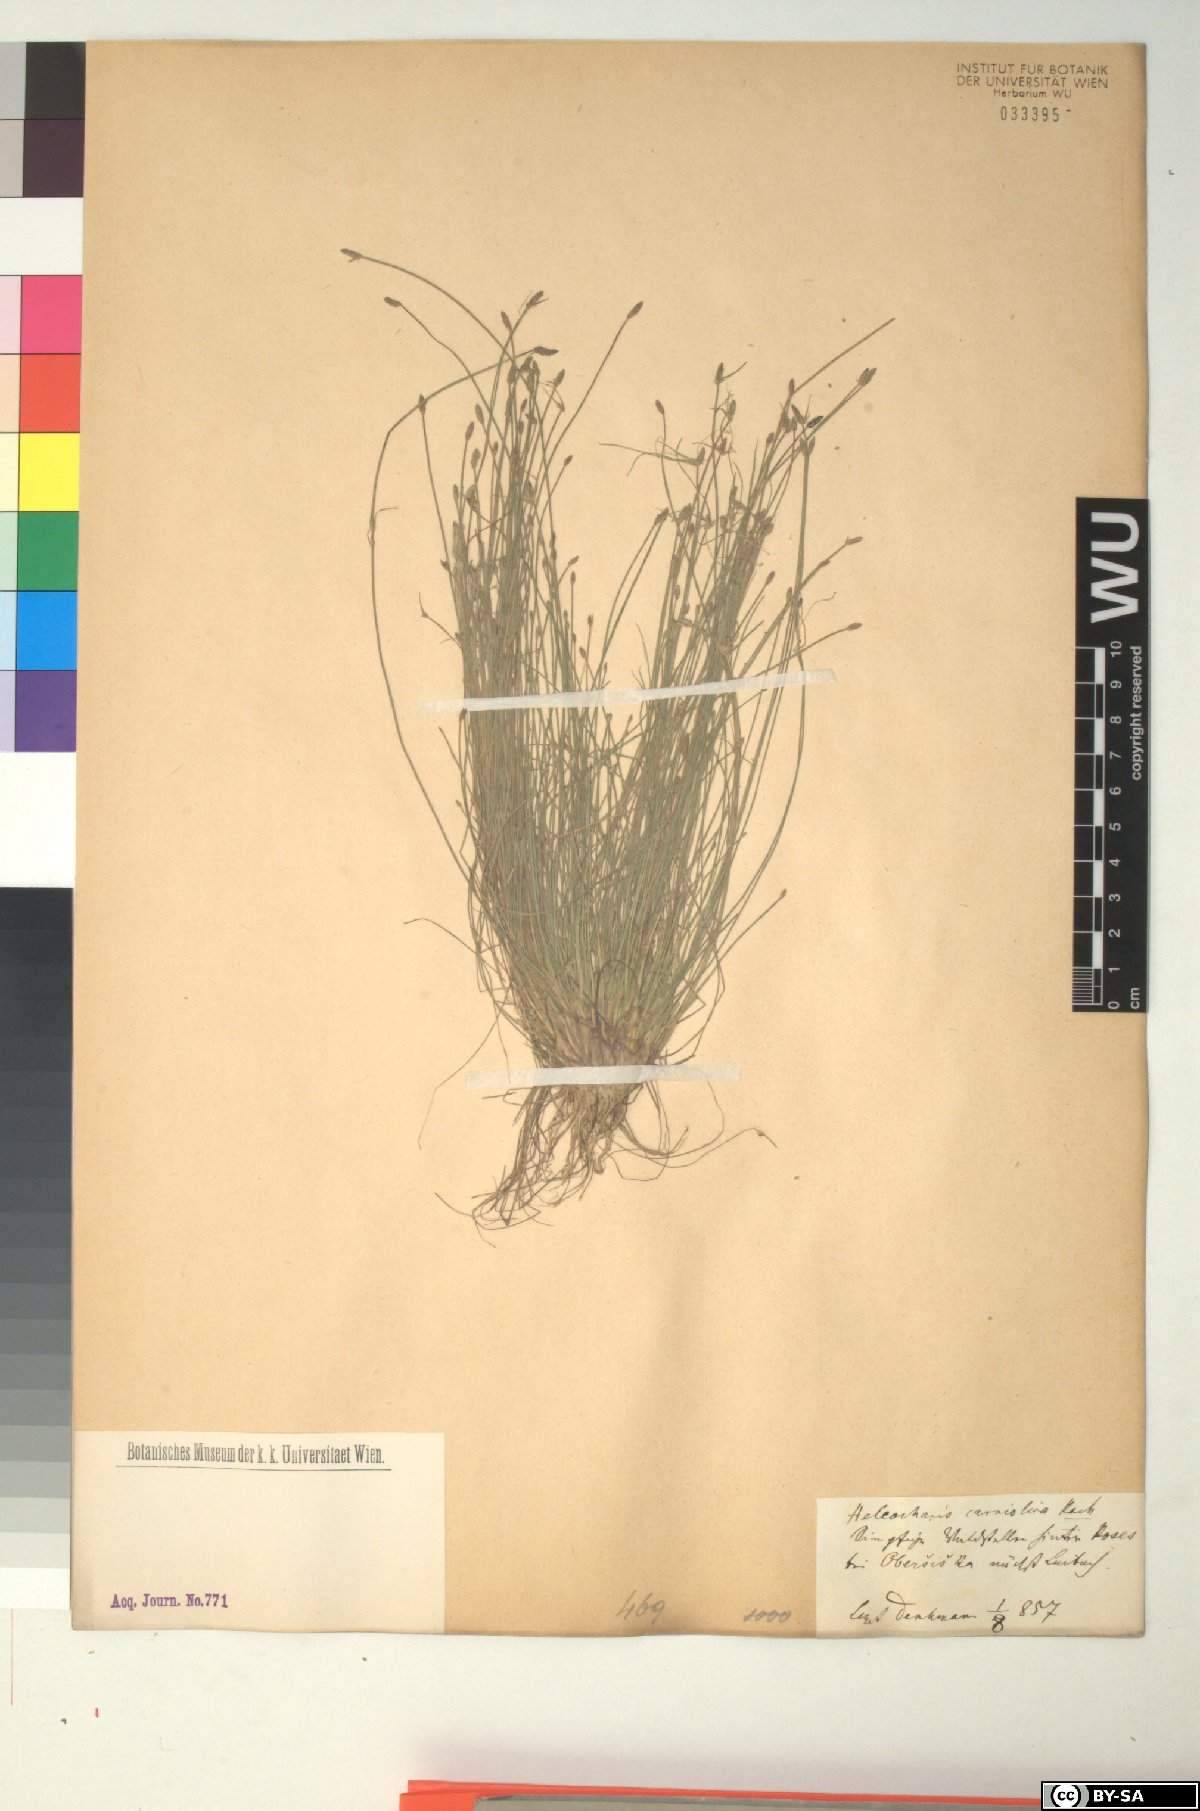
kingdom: Plantae
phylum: Tracheophyta
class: Liliopsida
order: Poales
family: Cyperaceae
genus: Eleocharis
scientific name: Eleocharis carniolica
